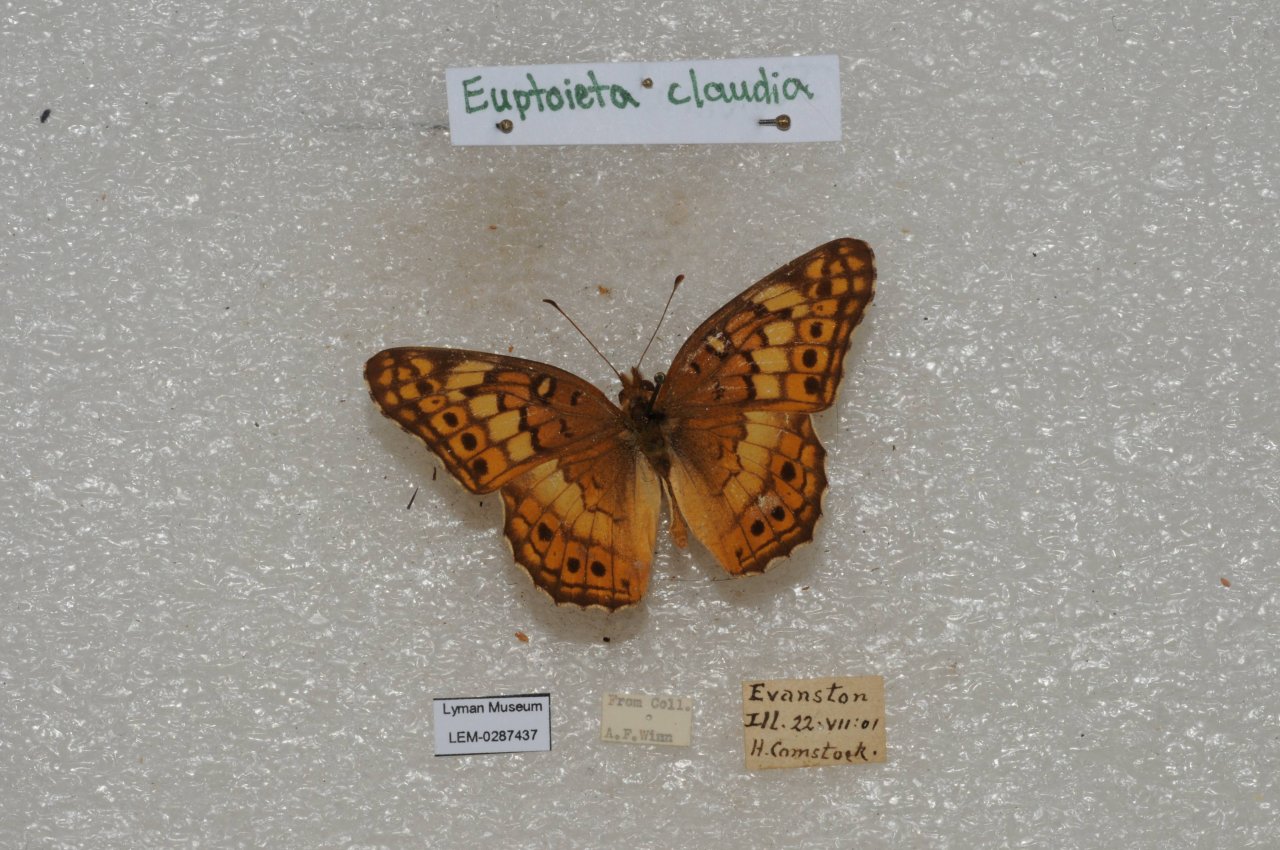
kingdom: Animalia
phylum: Arthropoda
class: Insecta
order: Lepidoptera
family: Nymphalidae
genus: Euptoieta
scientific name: Euptoieta claudia
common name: Variegated Fritillary
